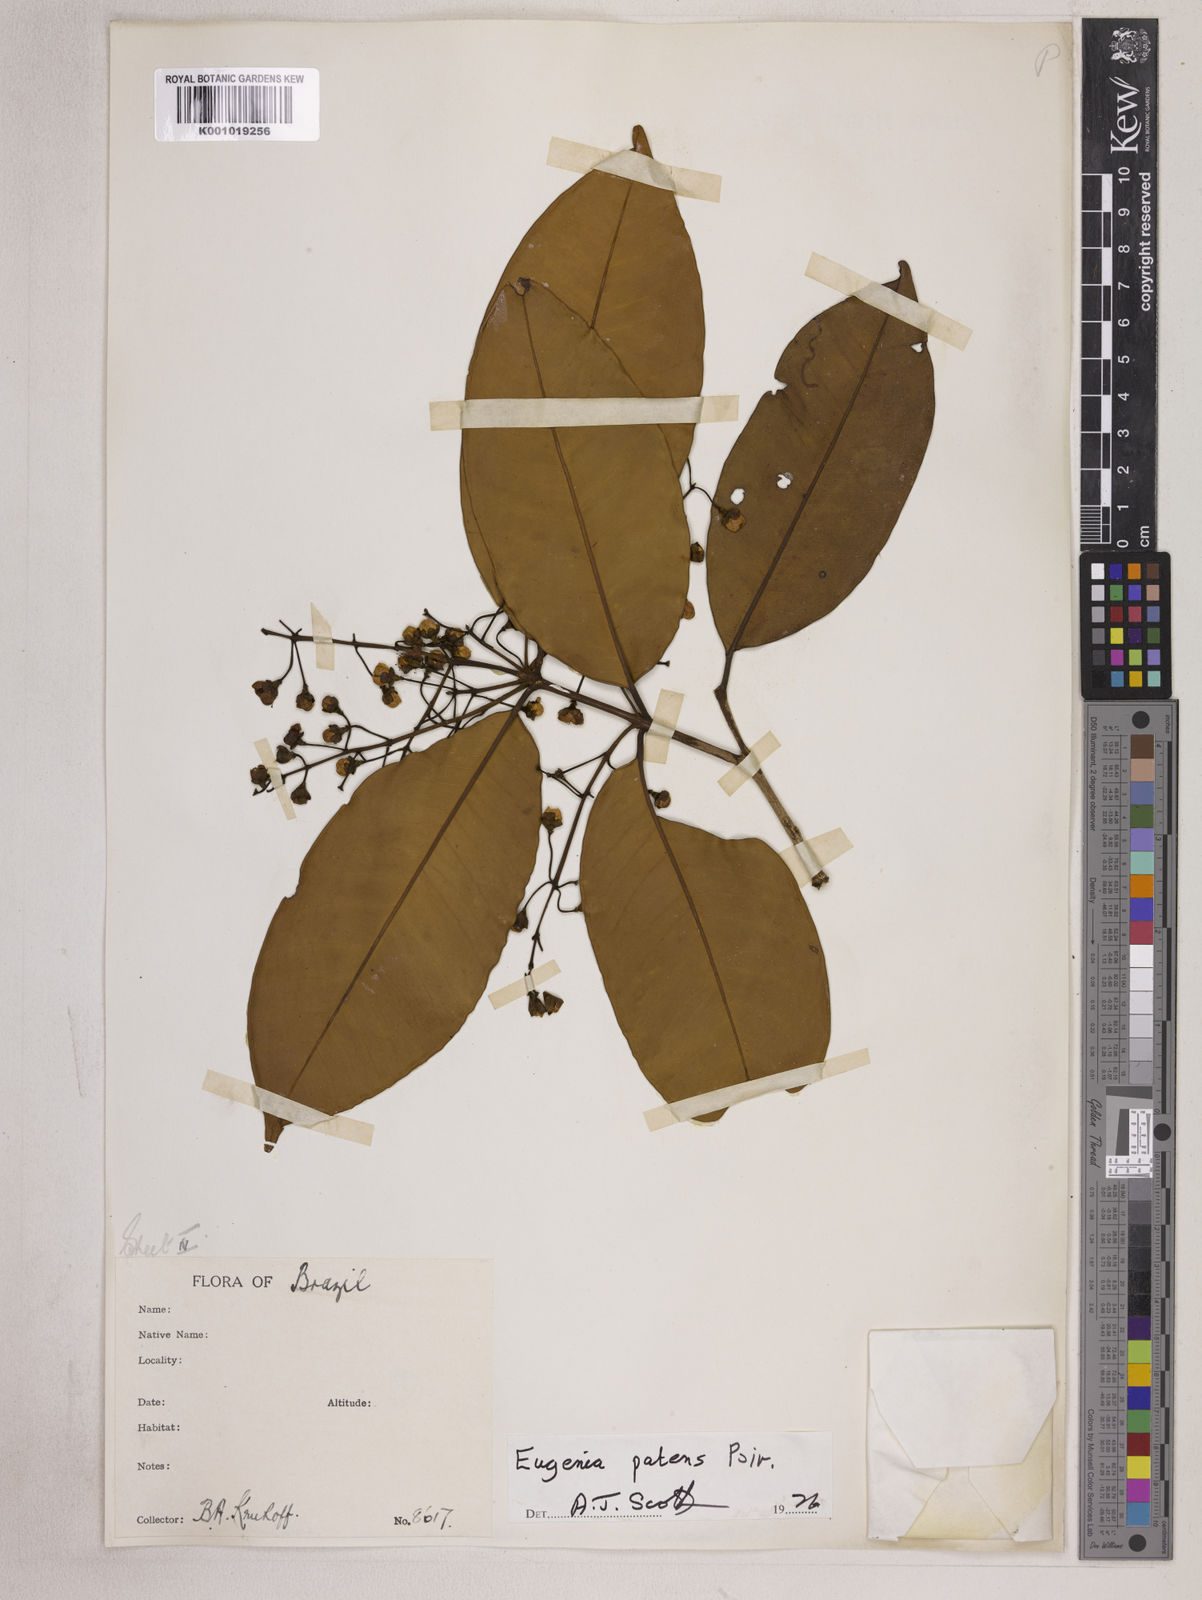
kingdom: Plantae
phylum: Tracheophyta
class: Magnoliopsida
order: Myrtales
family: Myrtaceae
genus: Eugenia
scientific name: Eugenia patens
